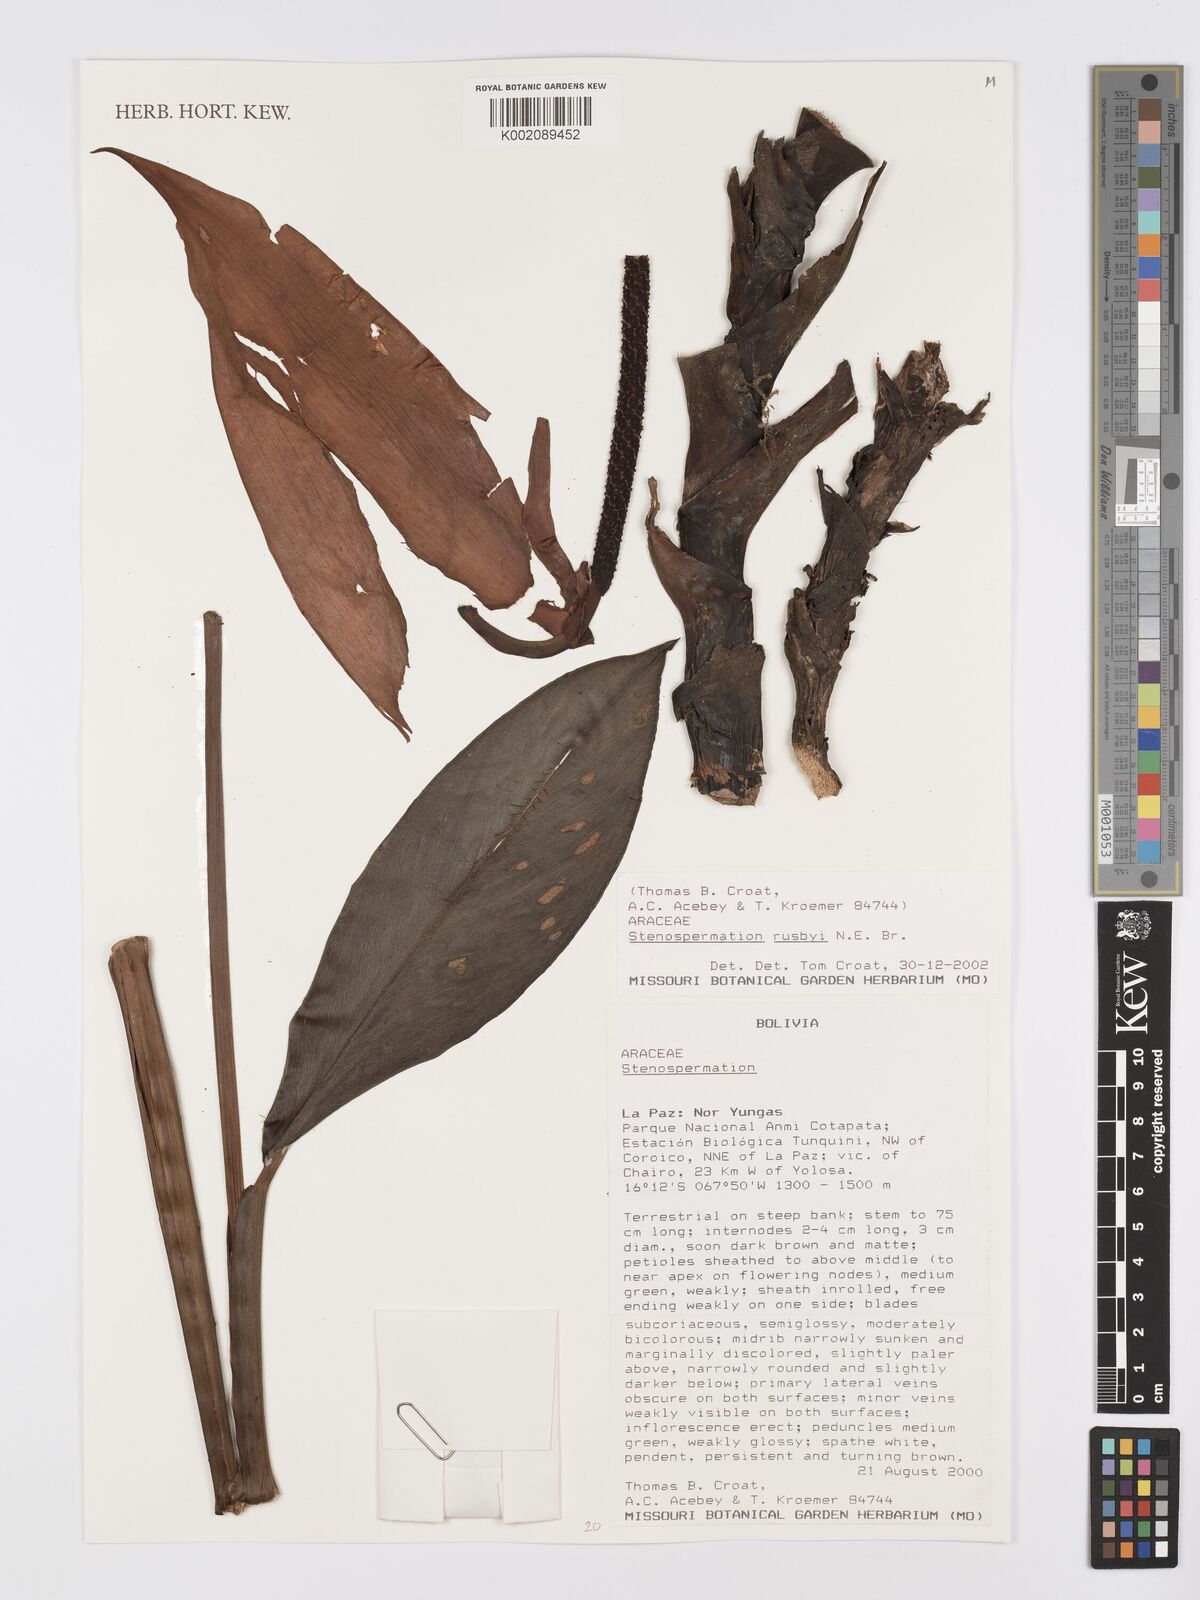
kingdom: Plantae
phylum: Tracheophyta
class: Liliopsida
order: Alismatales
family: Araceae
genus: Stenospermation
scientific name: Stenospermation rusbyi
